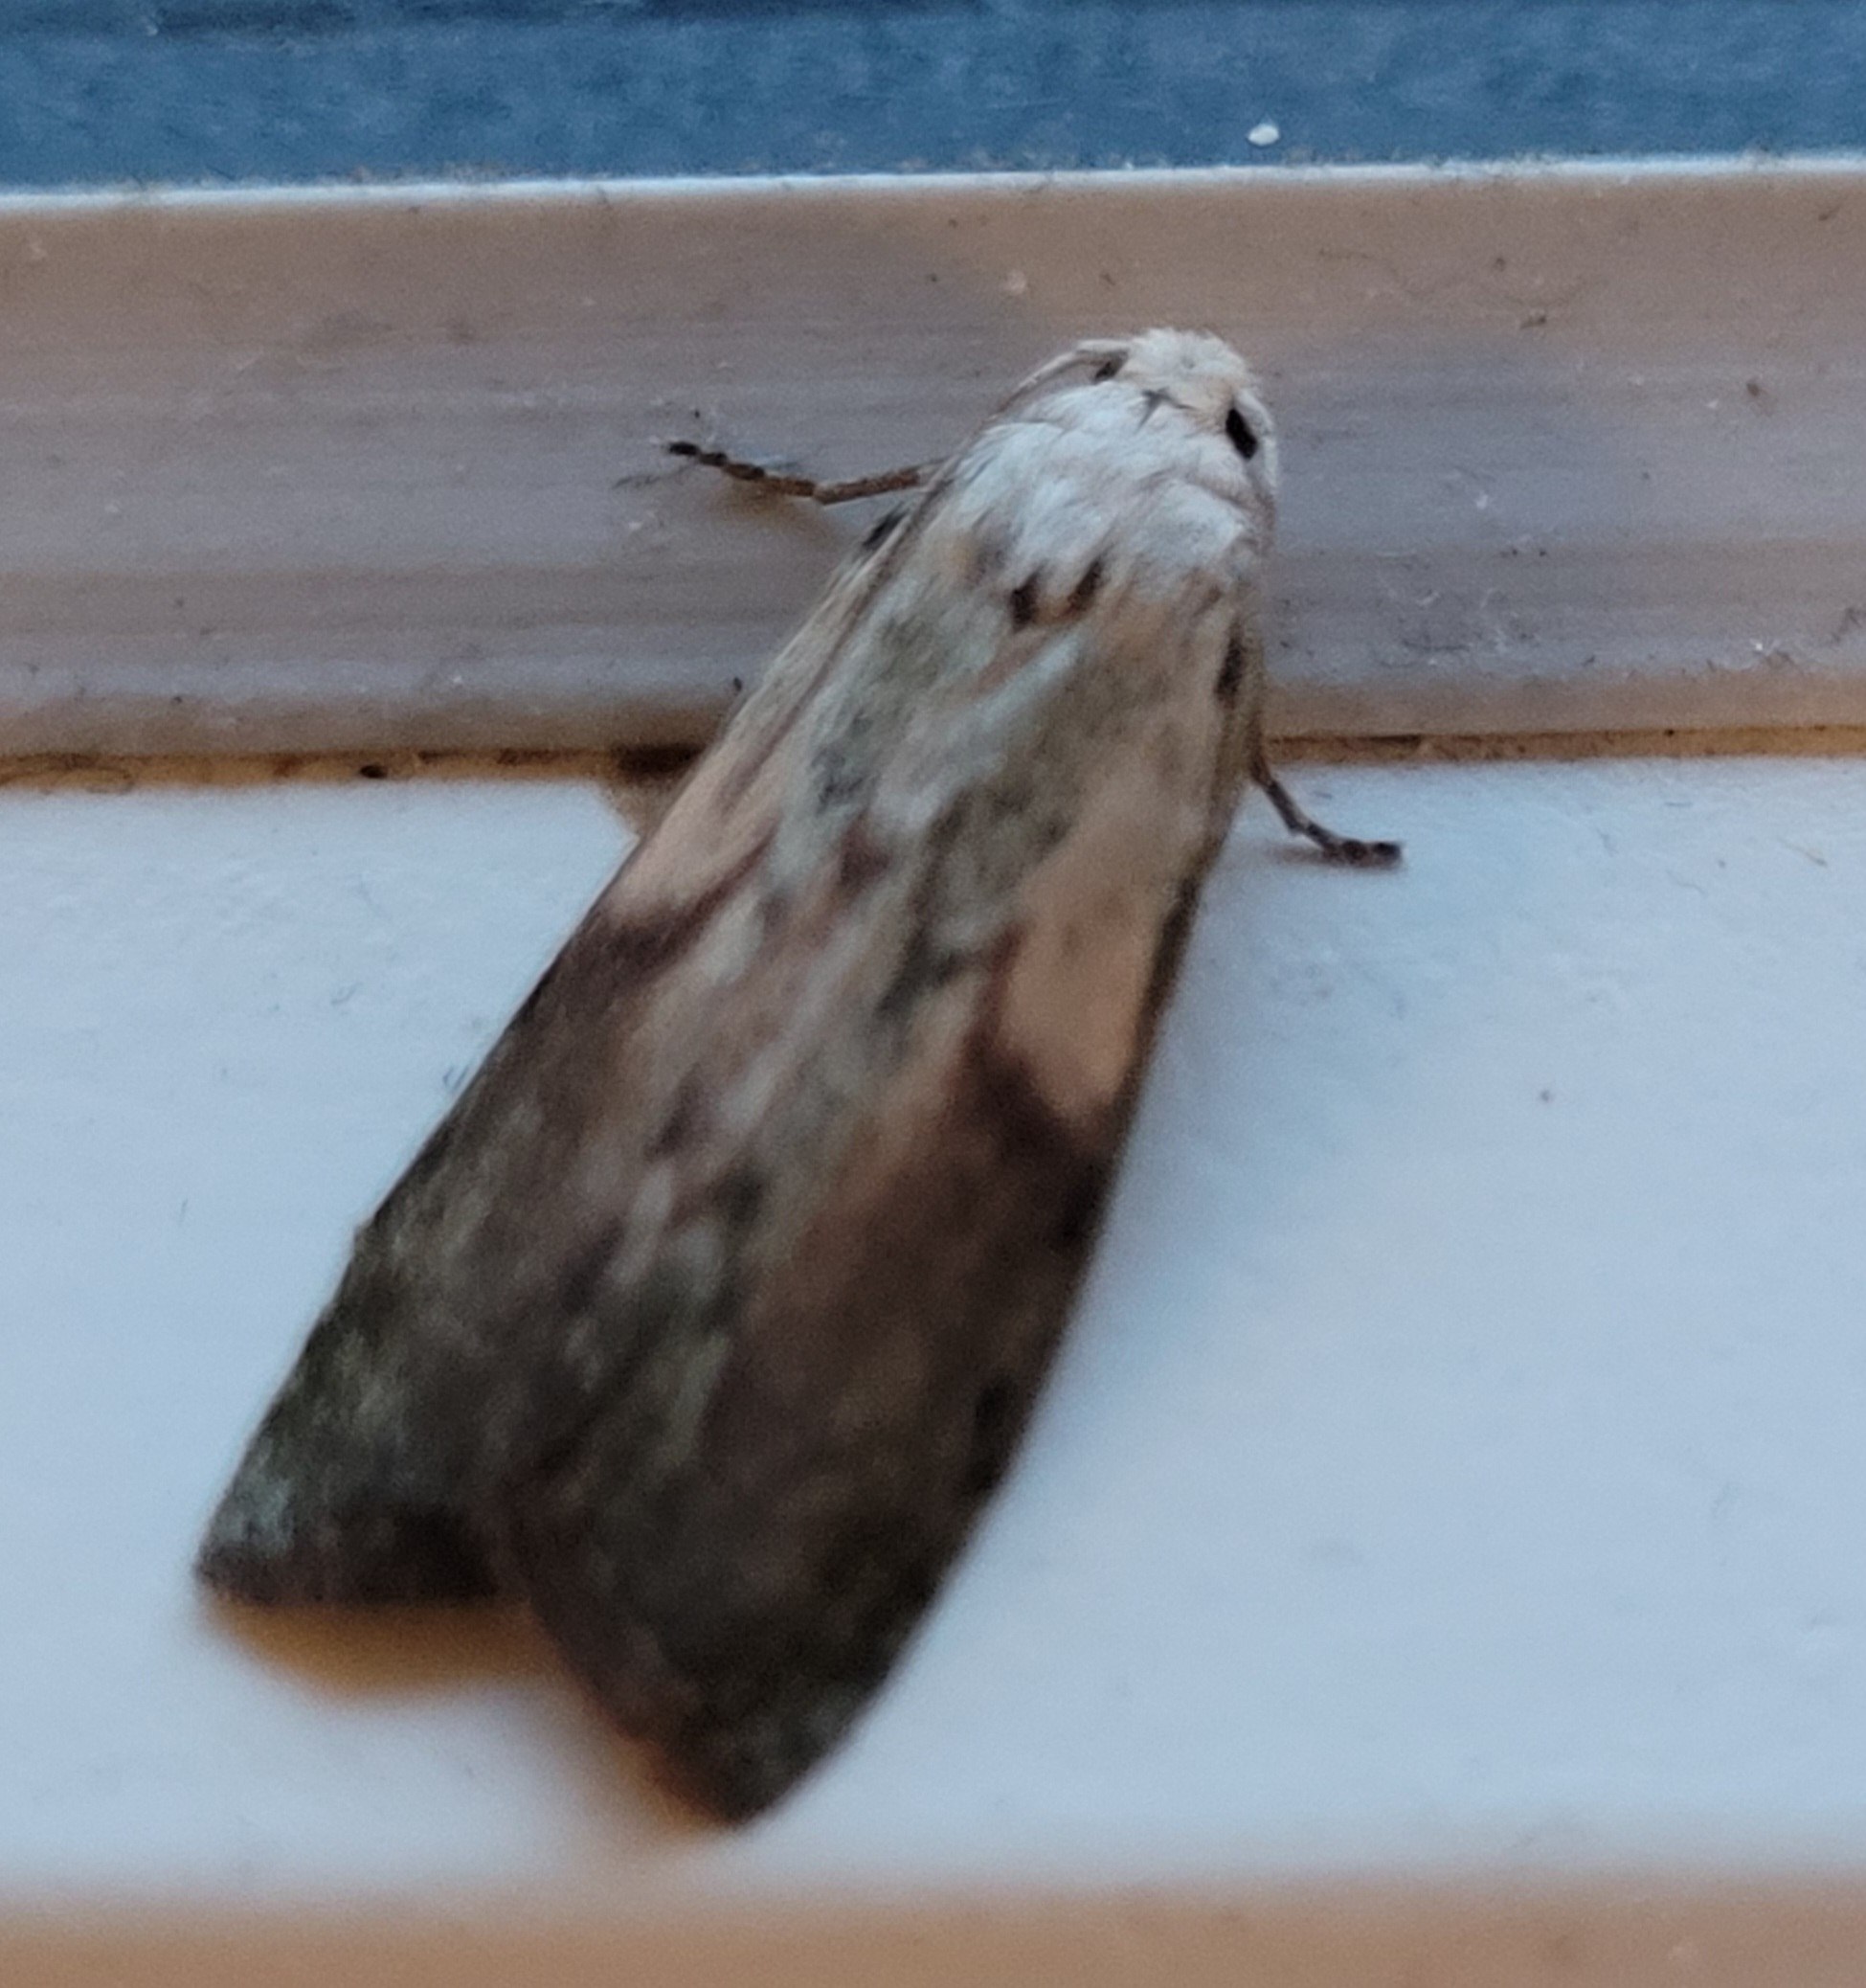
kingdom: Animalia
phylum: Arthropoda
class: Insecta
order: Lepidoptera
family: Pyralidae
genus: Aphomia
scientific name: Aphomia sociella
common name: Humlevoksmøl
